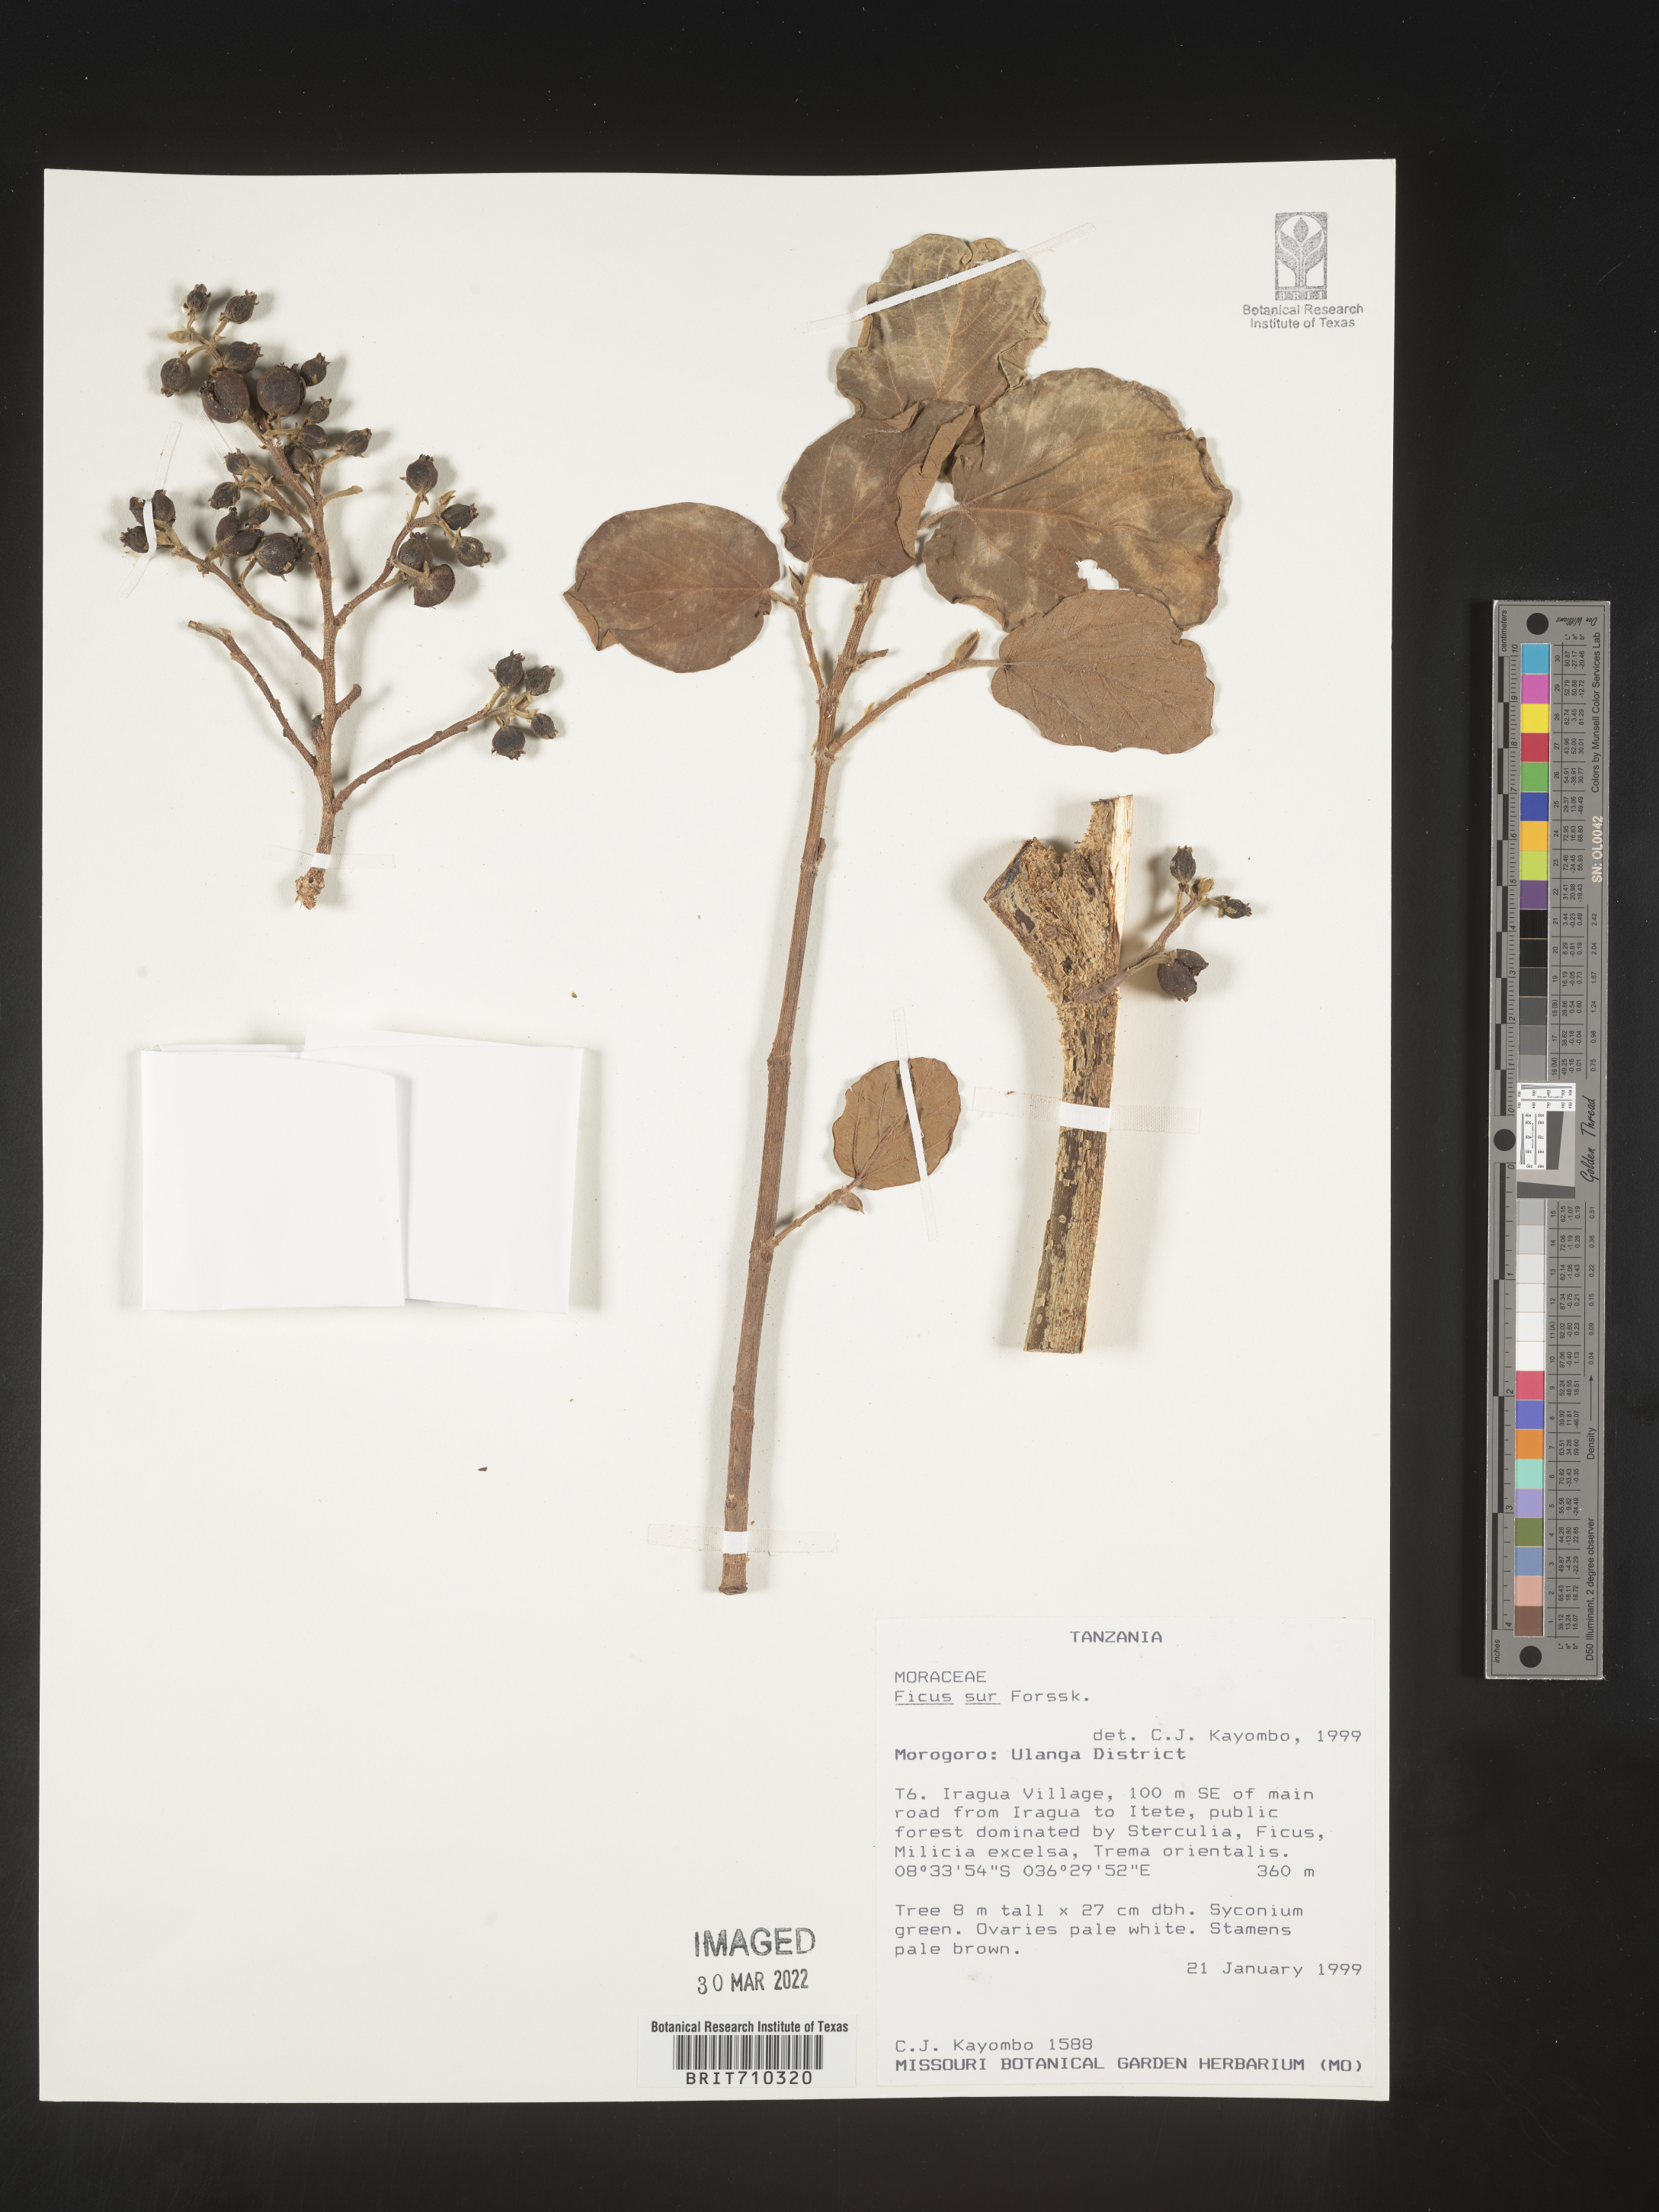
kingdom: Plantae
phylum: Tracheophyta
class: Magnoliopsida
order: Rosales
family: Moraceae
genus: Ficus
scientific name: Ficus
